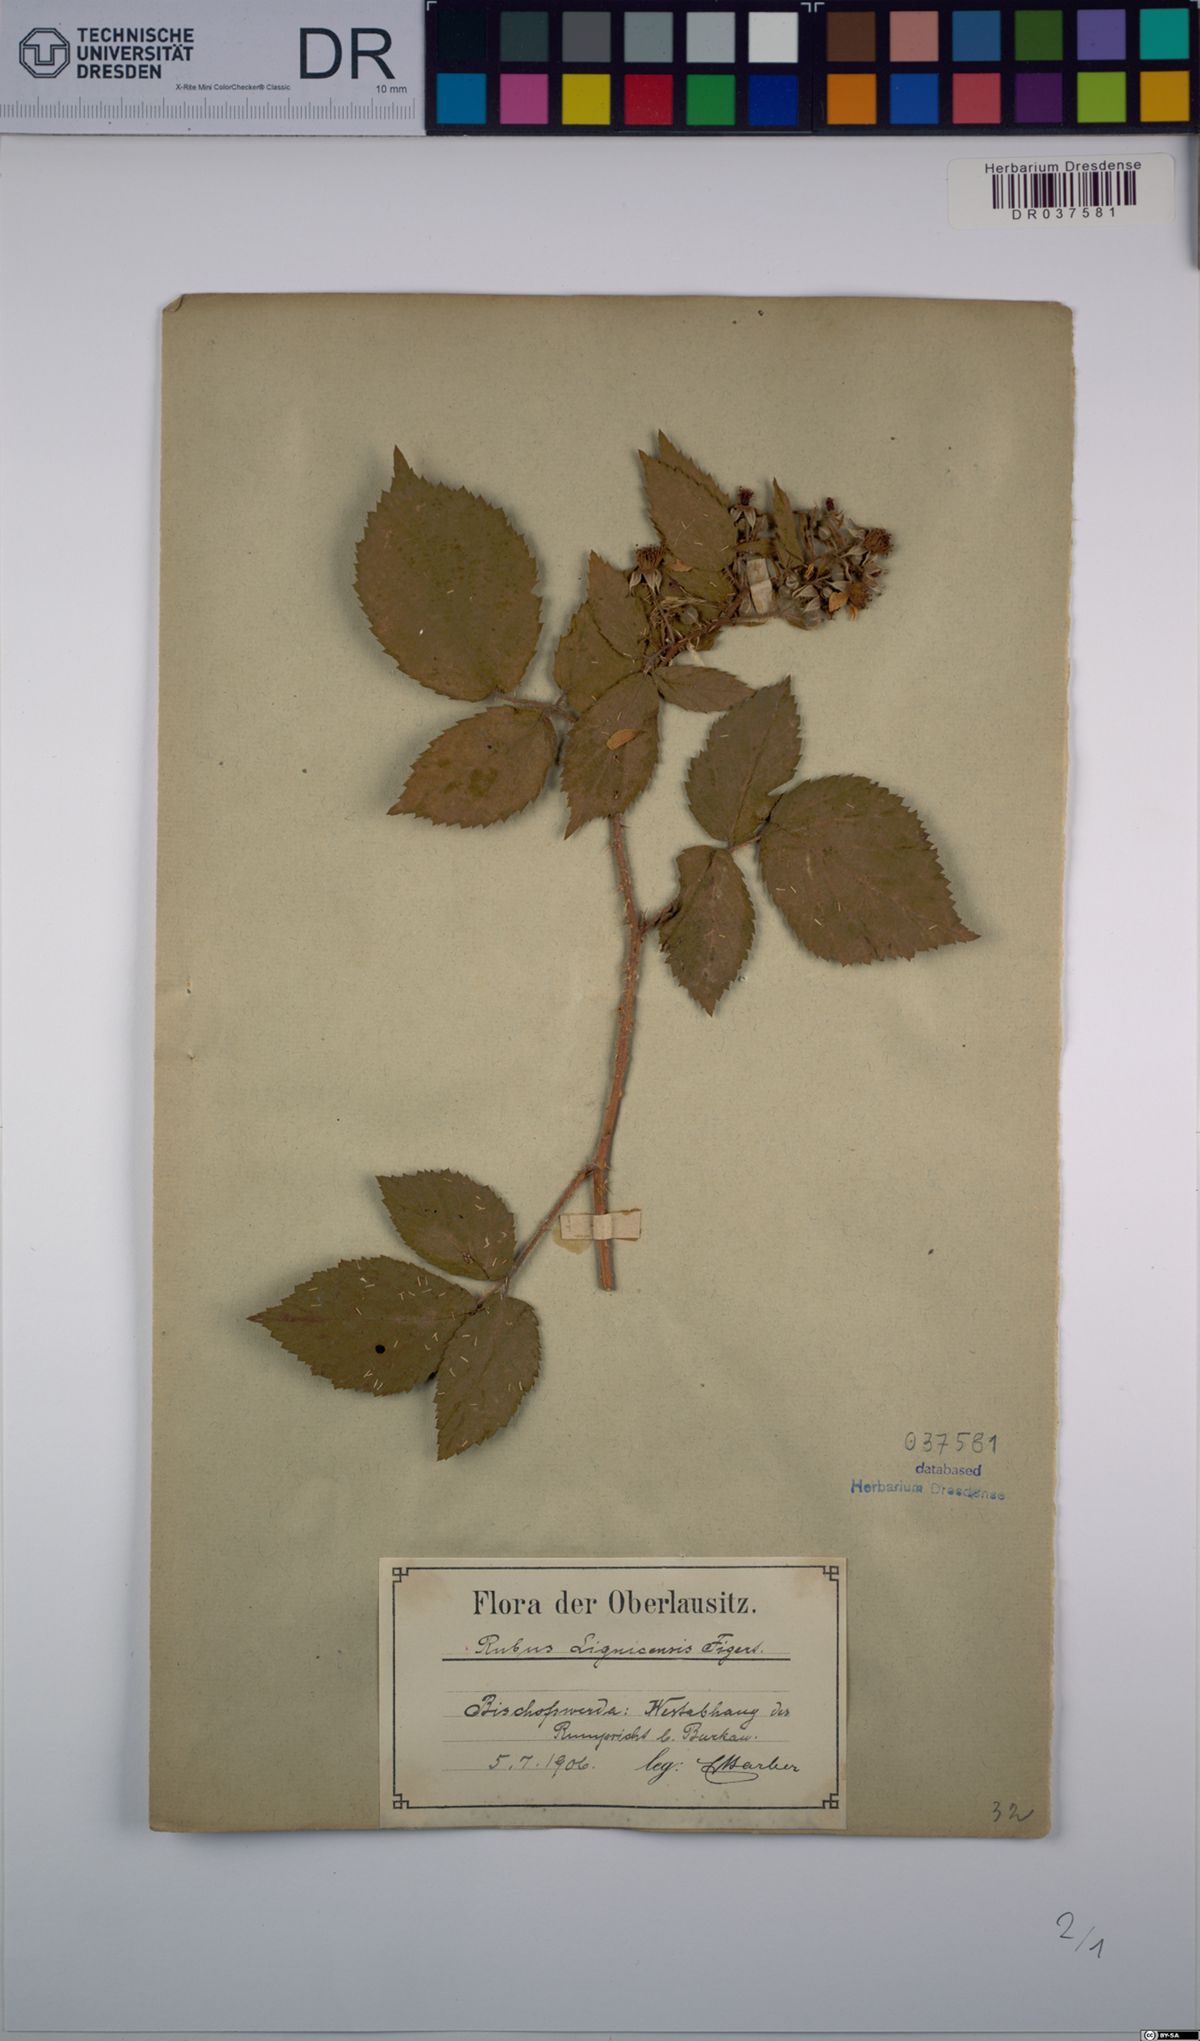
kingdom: Plantae
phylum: Tracheophyta
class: Magnoliopsida
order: Rosales
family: Rosaceae
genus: Rubus
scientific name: Rubus lignicensis
